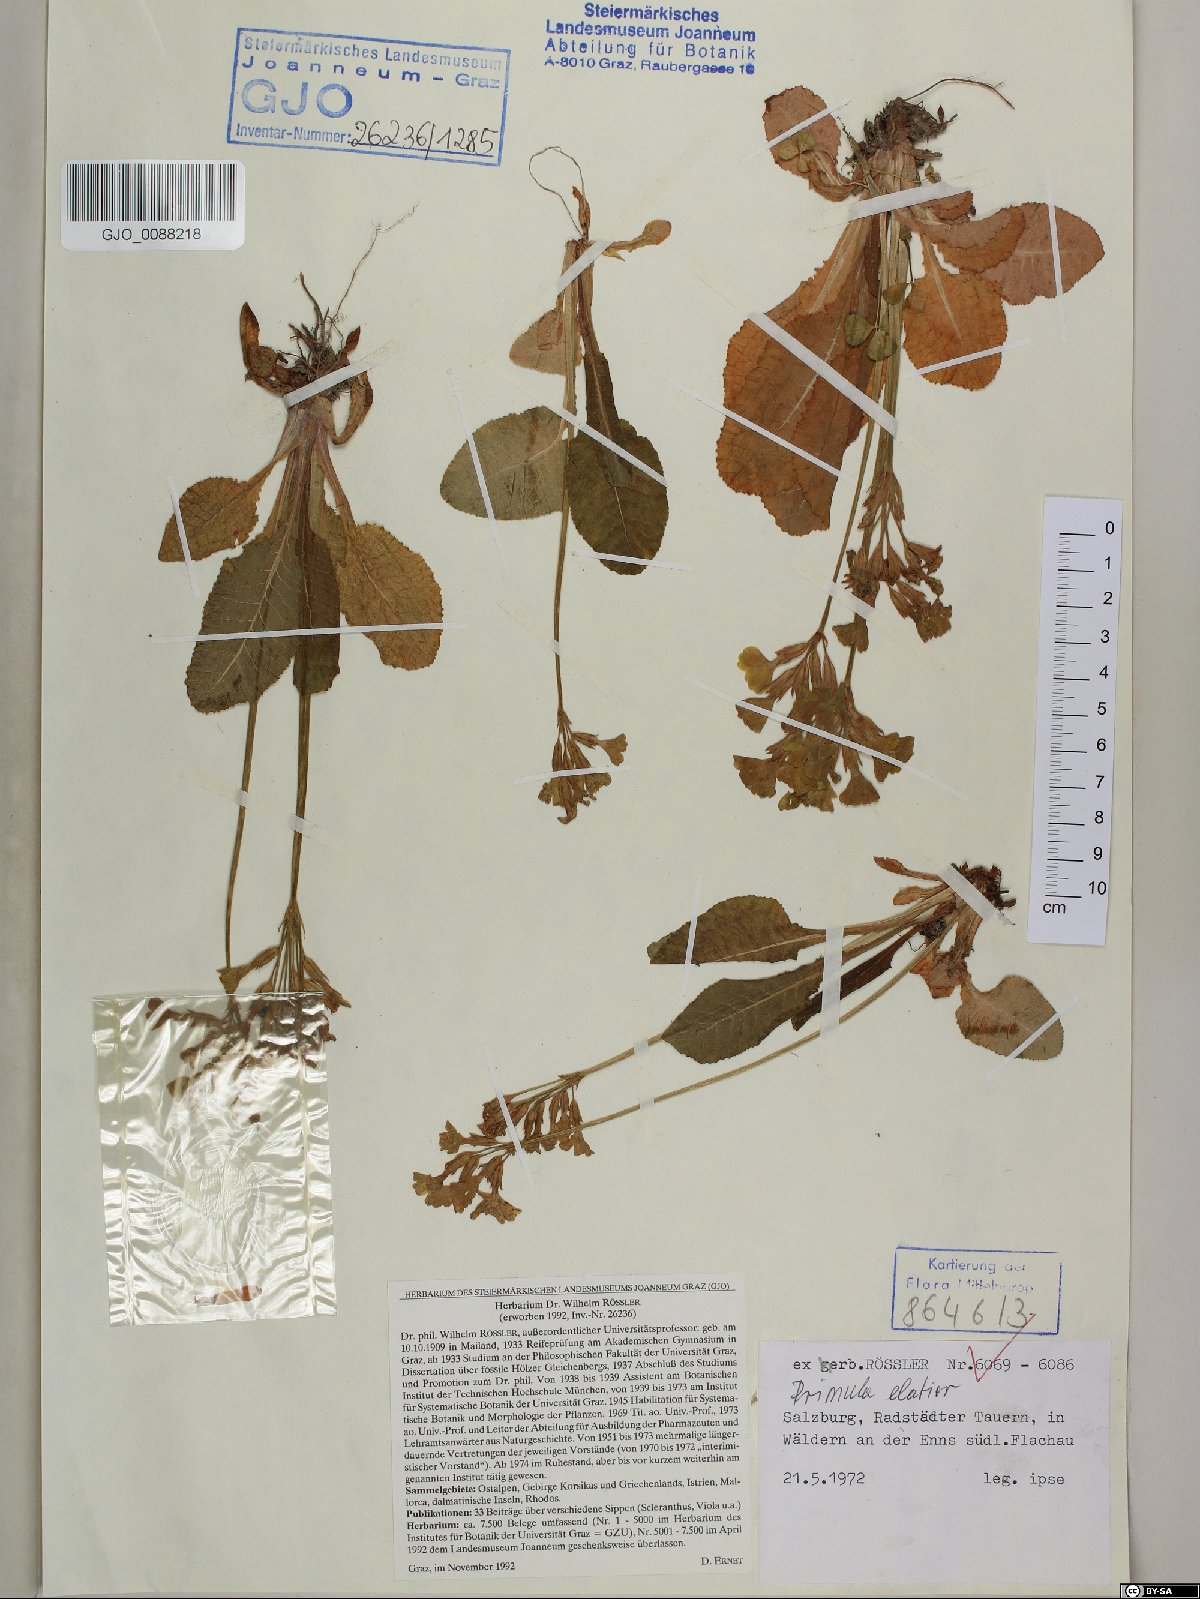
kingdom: Plantae
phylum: Tracheophyta
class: Magnoliopsida
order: Ericales
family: Primulaceae
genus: Primula
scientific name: Primula elatior
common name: Oxlip
